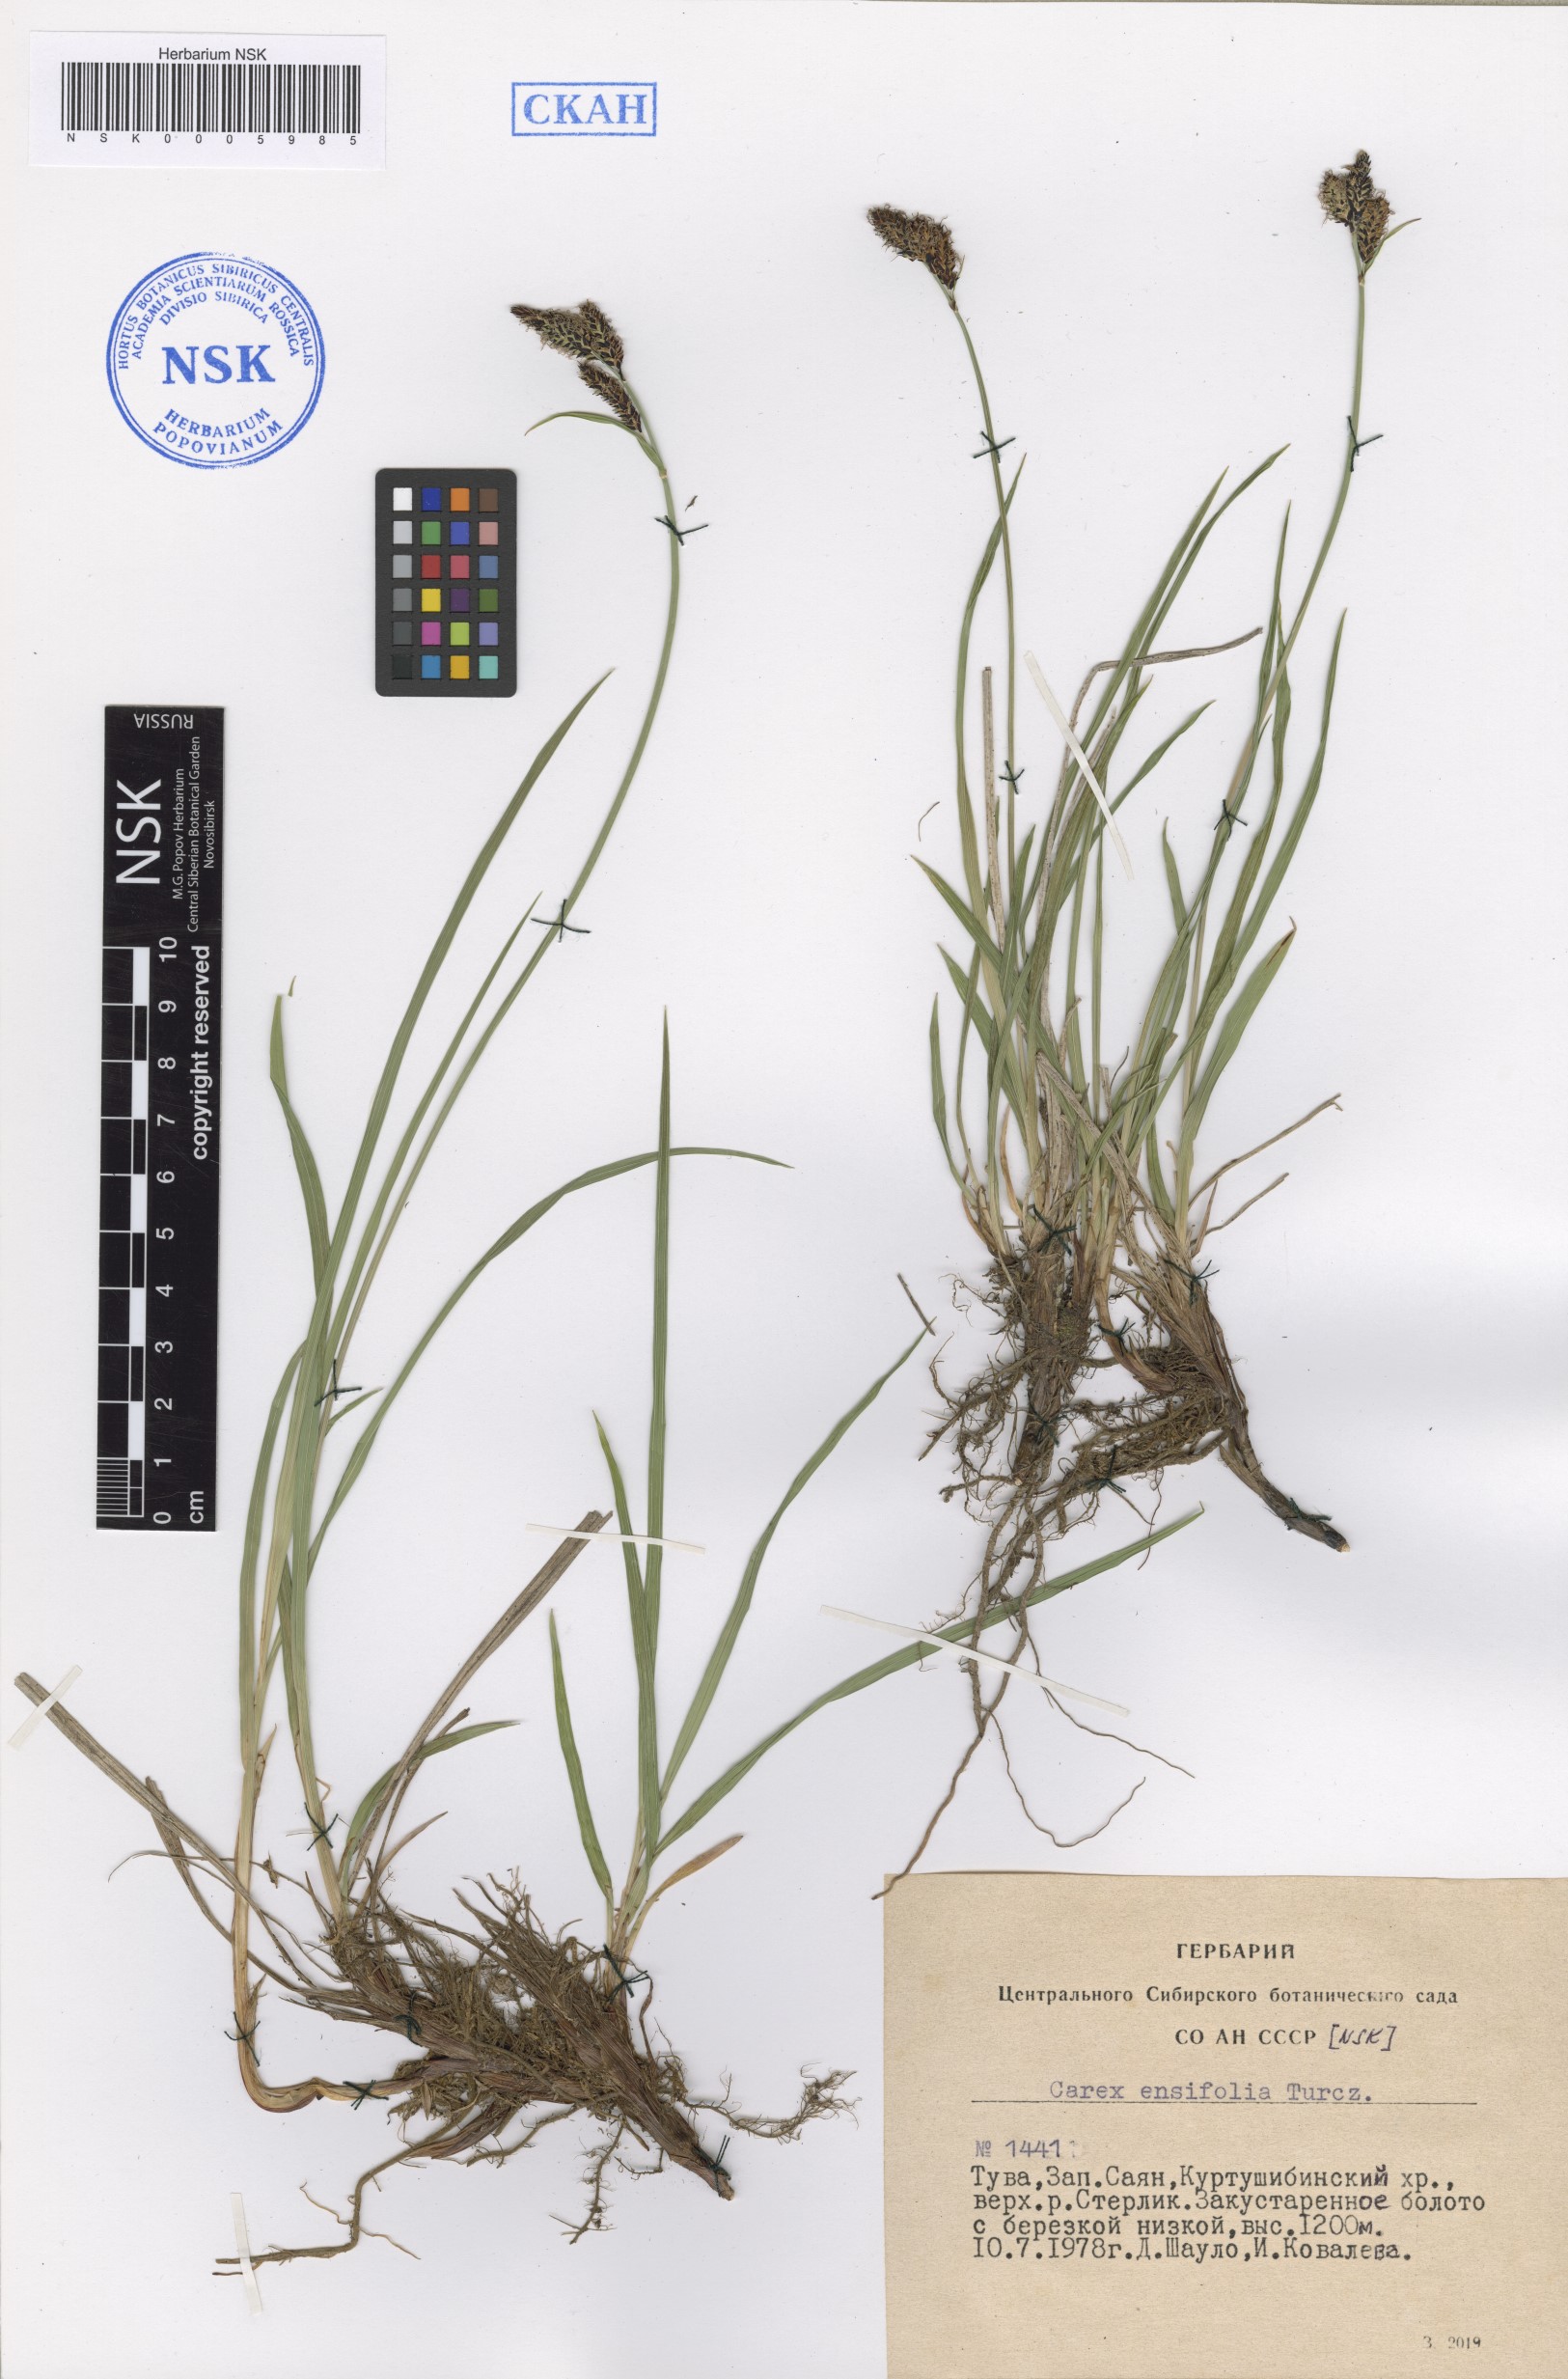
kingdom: Plantae
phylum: Tracheophyta
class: Liliopsida
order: Poales
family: Cyperaceae
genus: Carex
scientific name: Carex bigelowii
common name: Stiff sedge
